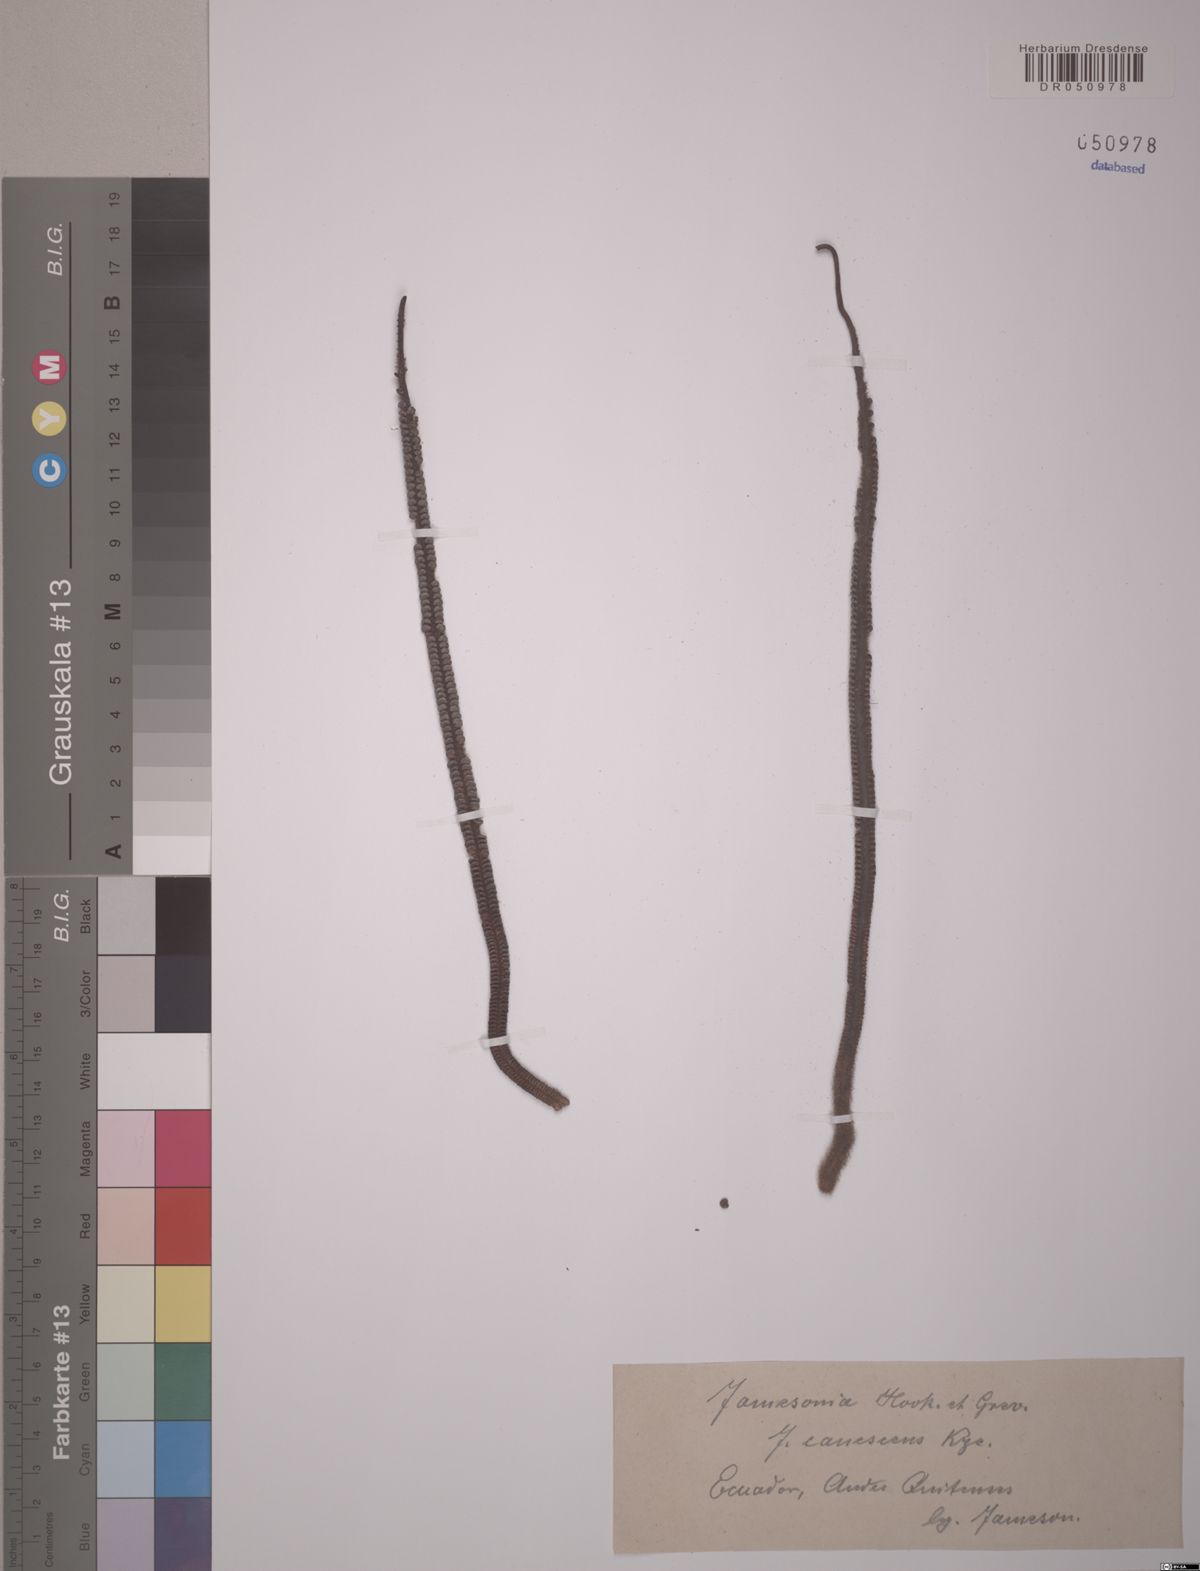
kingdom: Plantae
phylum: Tracheophyta
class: Polypodiopsida
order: Polypodiales
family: Pteridaceae
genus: Jamesonia
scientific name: Jamesonia canescens
